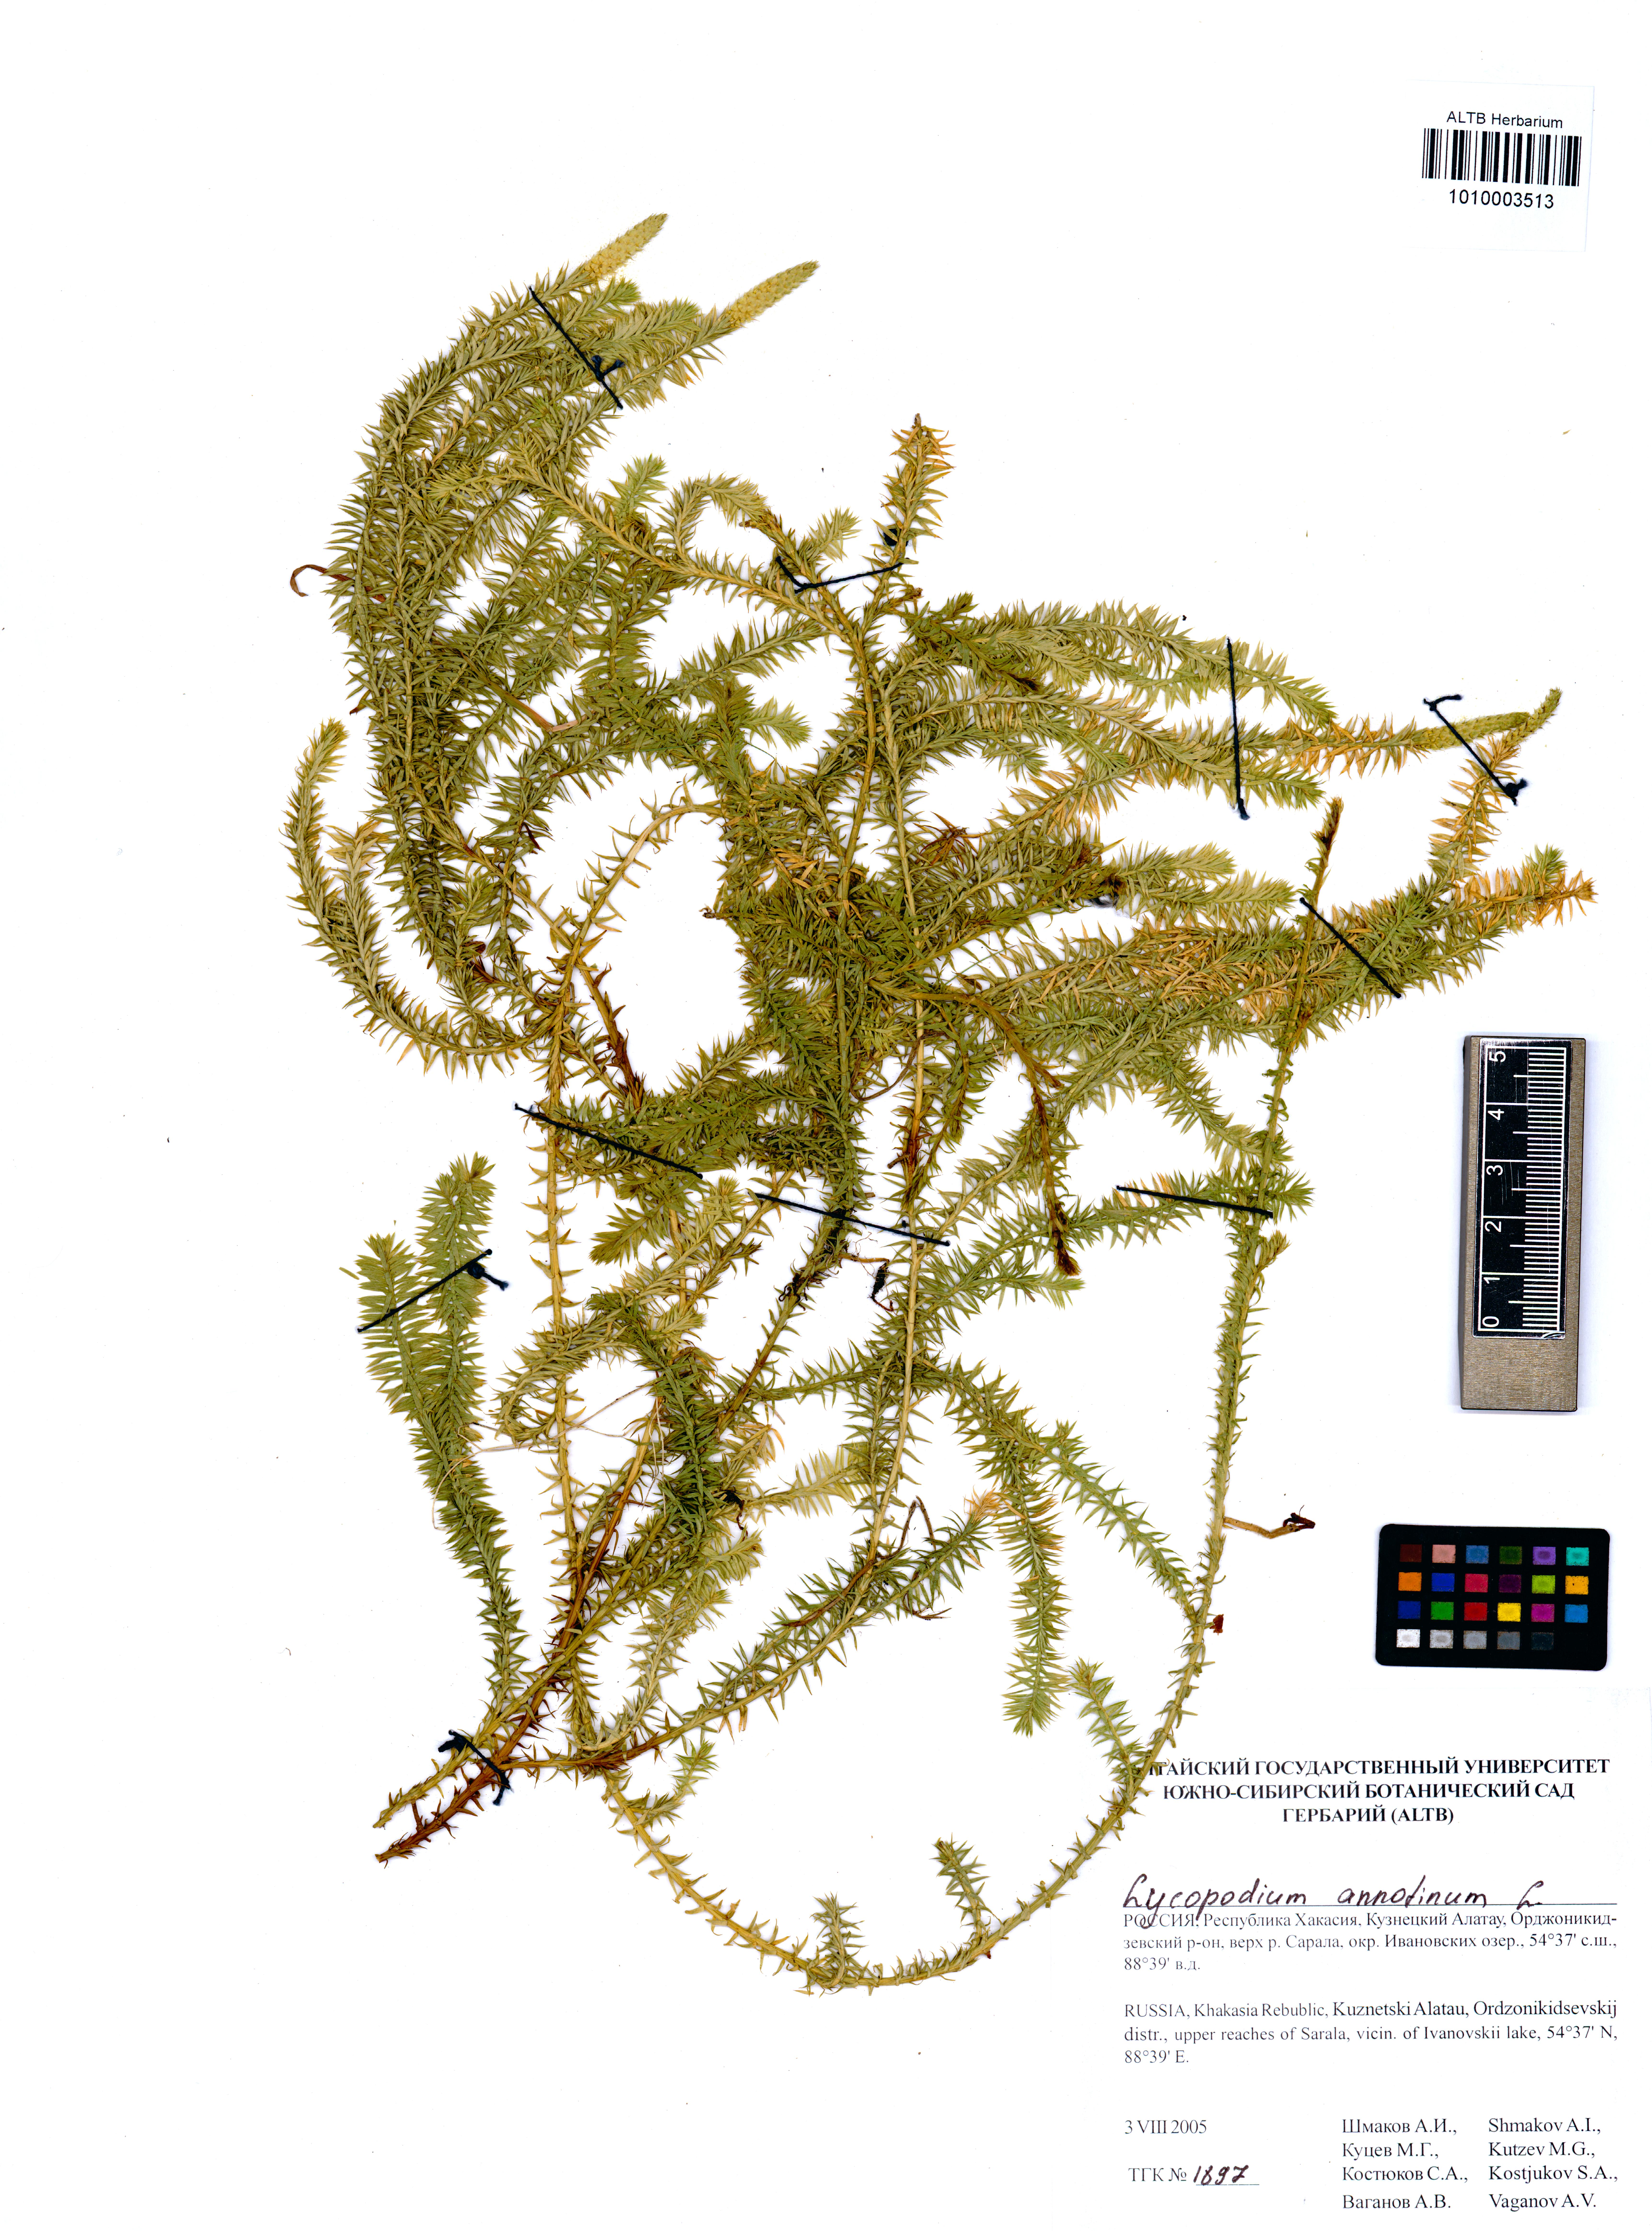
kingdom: Plantae
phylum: Tracheophyta
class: Lycopodiopsida
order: Lycopodiales
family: Lycopodiaceae
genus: Spinulum
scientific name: Spinulum annotinum
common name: Interrupted club-moss
